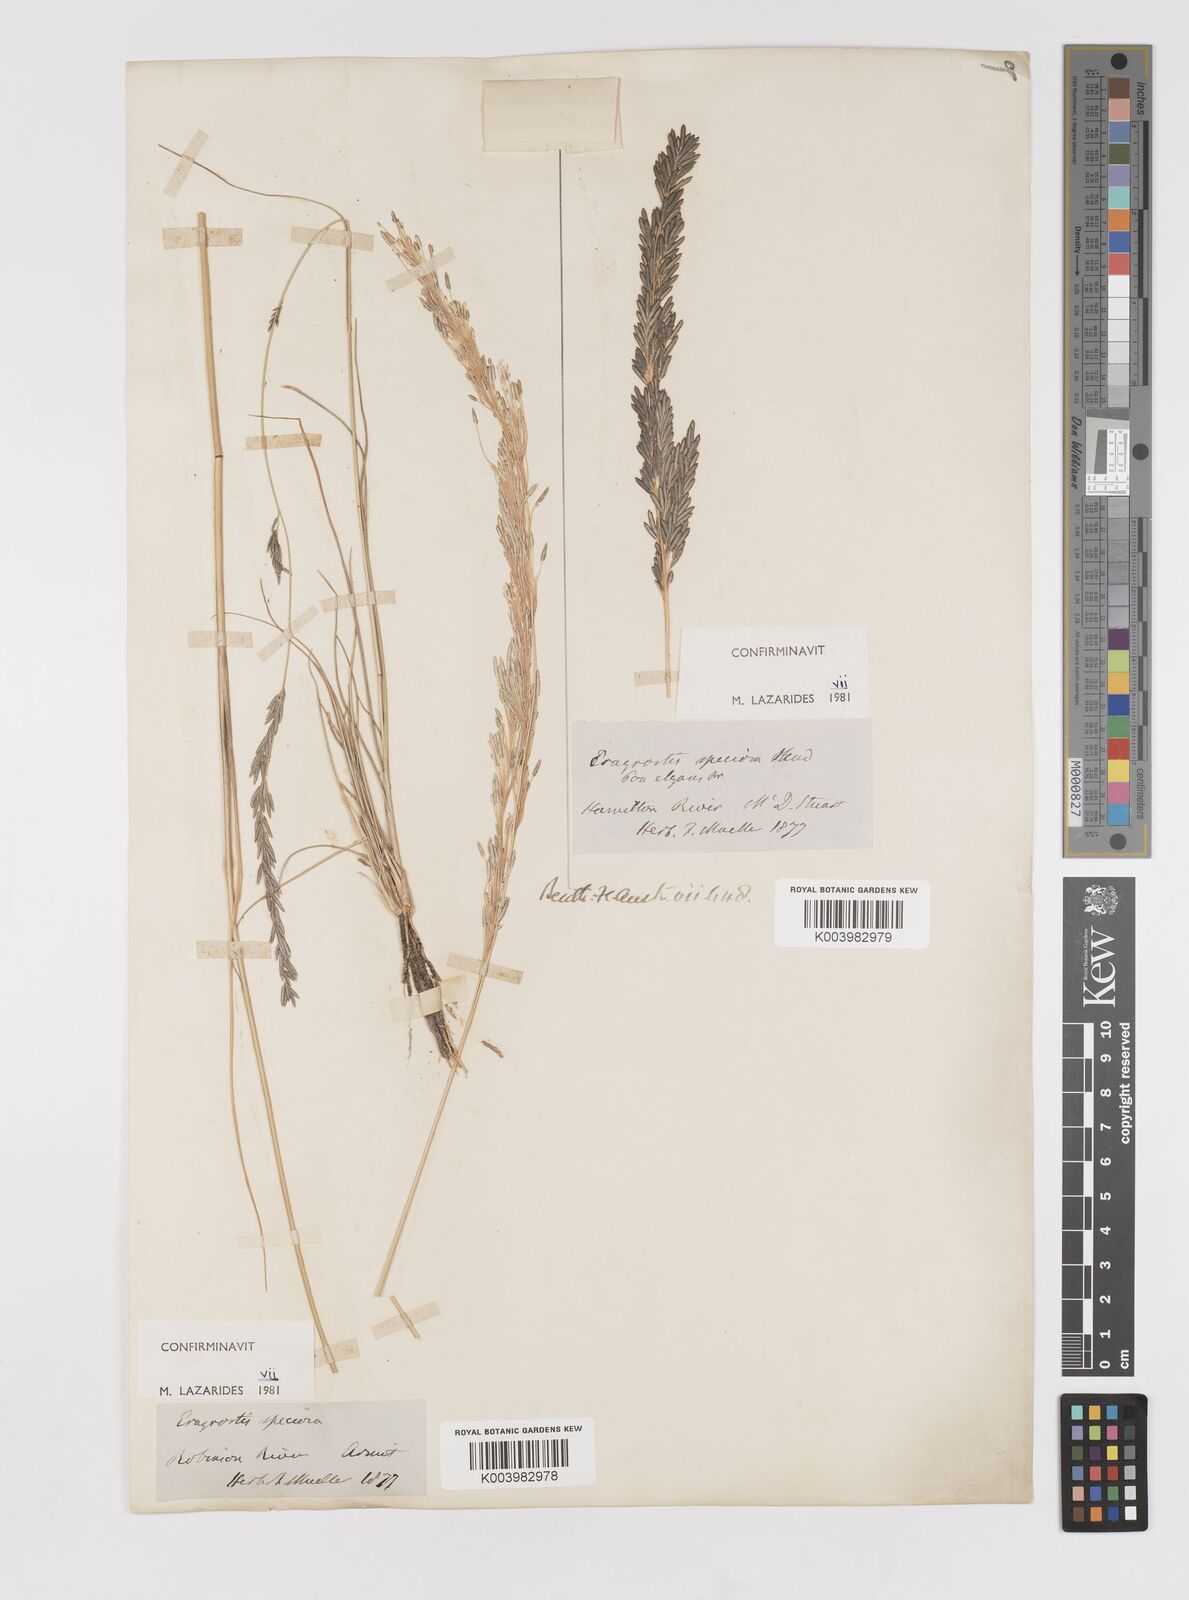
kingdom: Plantae
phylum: Tracheophyta
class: Liliopsida
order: Poales
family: Poaceae
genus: Eragrostis
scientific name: Eragrostis speciosa
